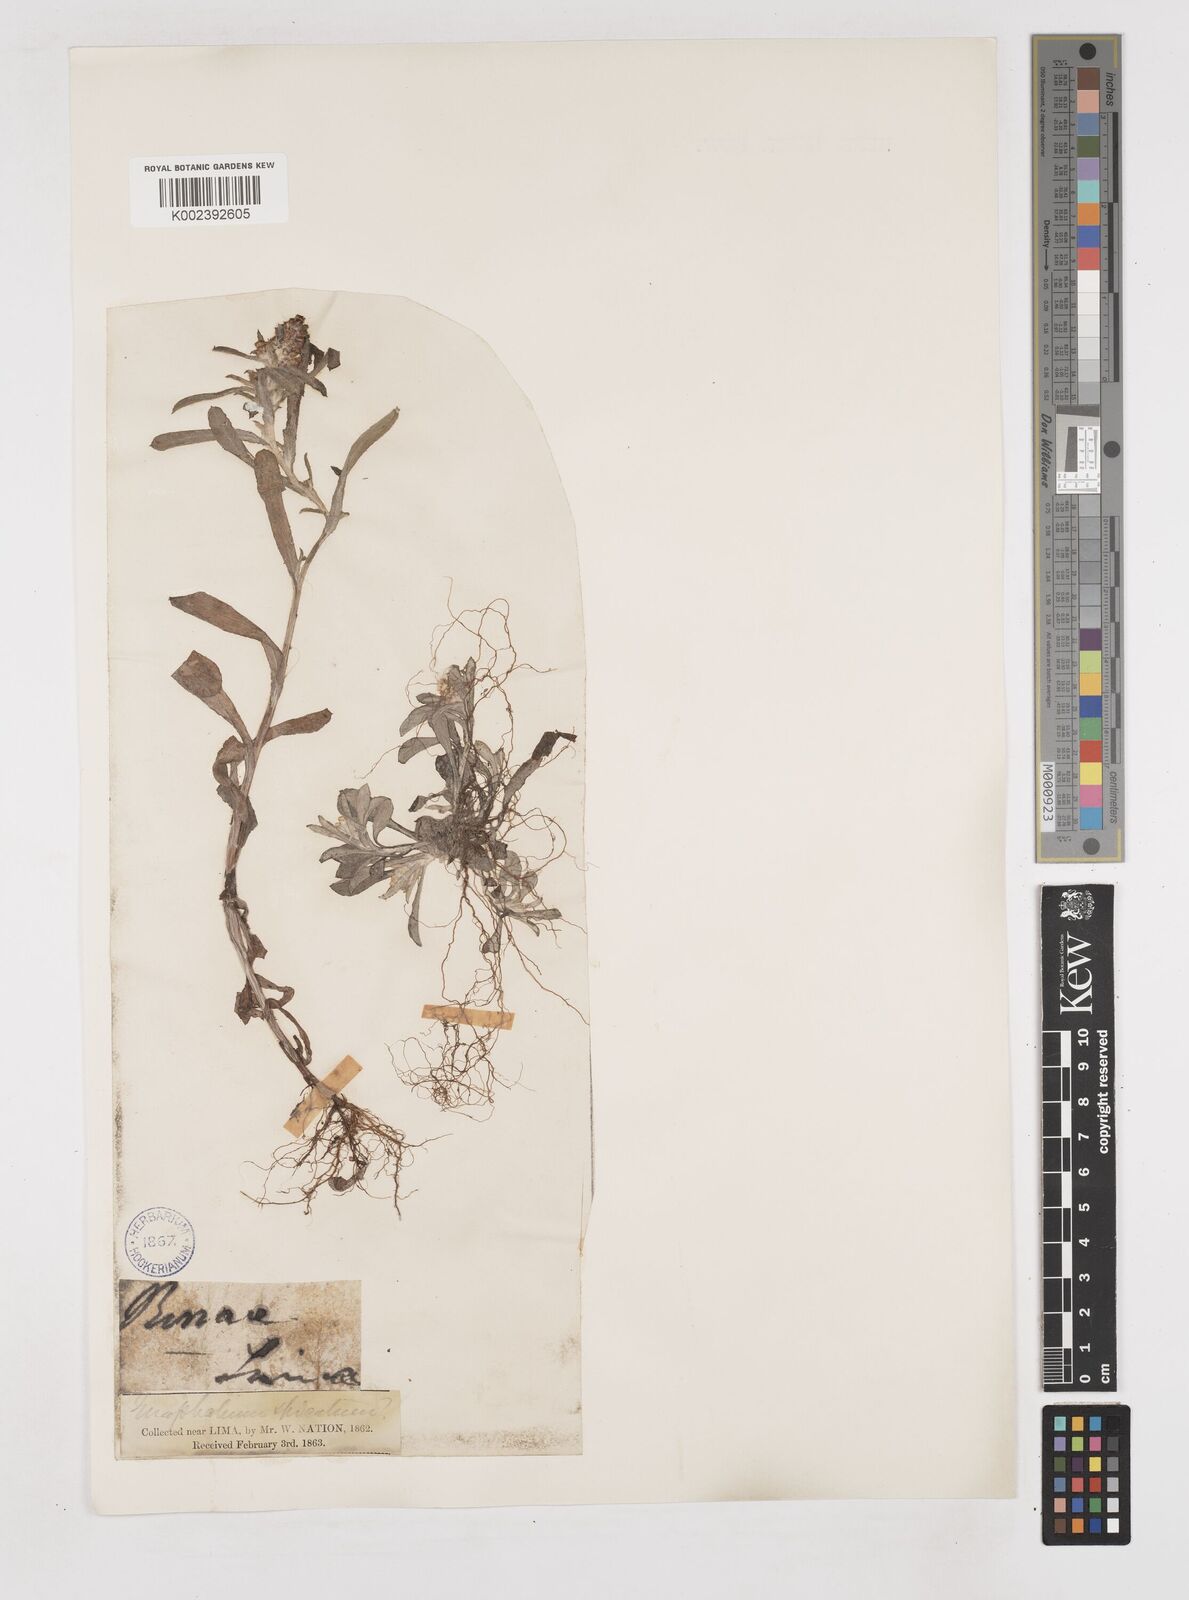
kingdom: Plantae
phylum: Tracheophyta
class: Magnoliopsida
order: Asterales
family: Asteraceae
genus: Gamochaeta
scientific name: Gamochaeta americana
